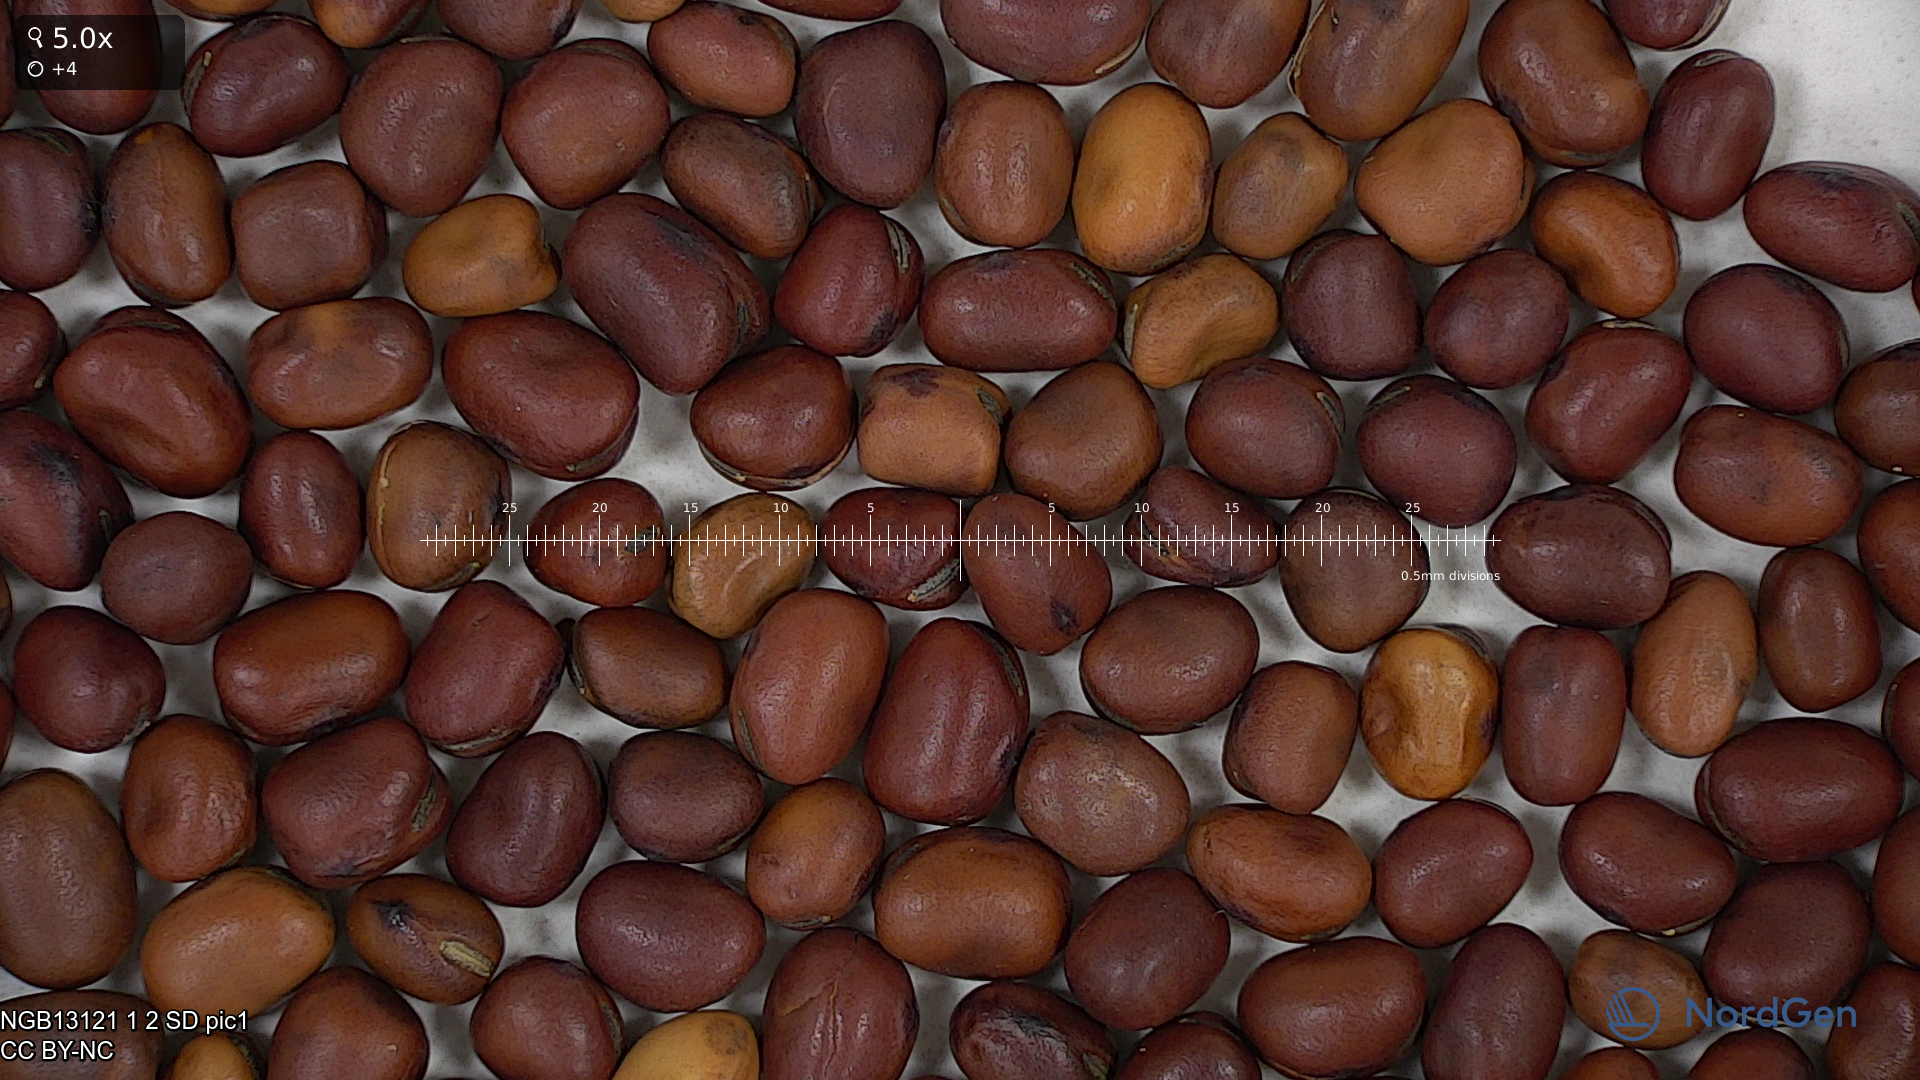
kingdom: Plantae
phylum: Tracheophyta
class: Magnoliopsida
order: Fabales
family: Fabaceae
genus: Vicia
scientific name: Vicia faba
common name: Broad bean
